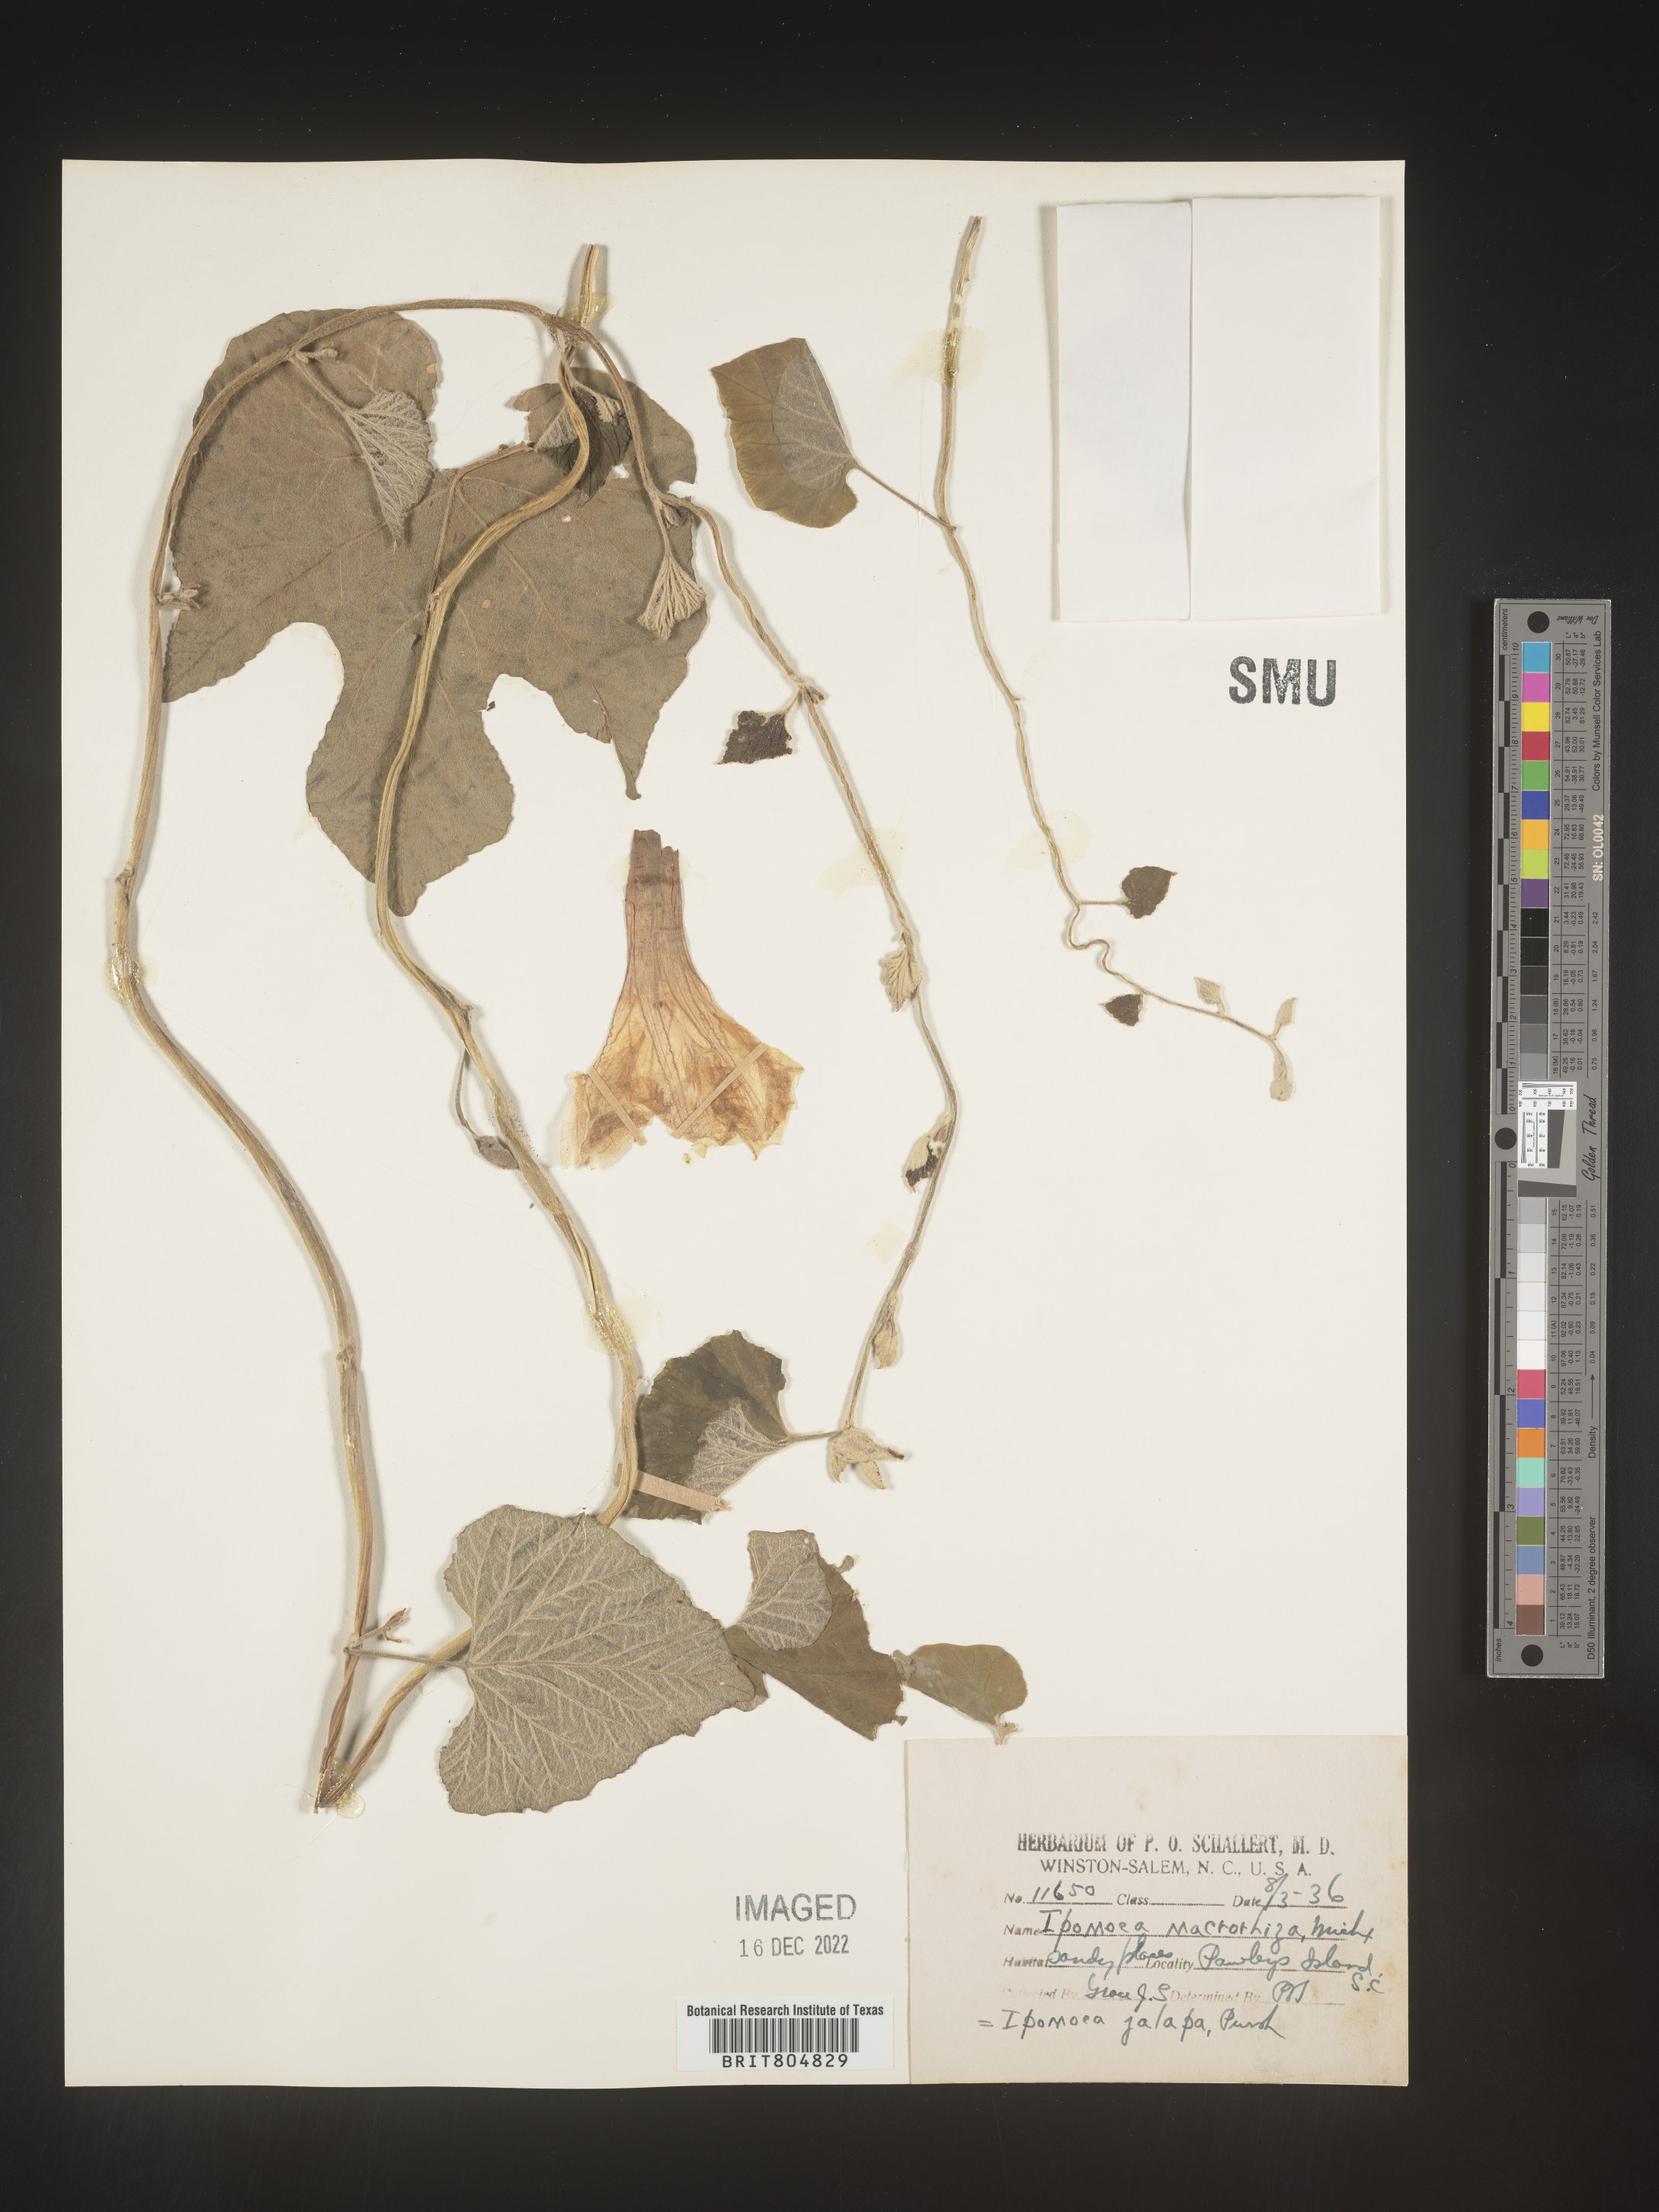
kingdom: Plantae
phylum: Tracheophyta
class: Magnoliopsida
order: Solanales
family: Convolvulaceae
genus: Ipomoea
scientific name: Ipomoea macrorhiza
